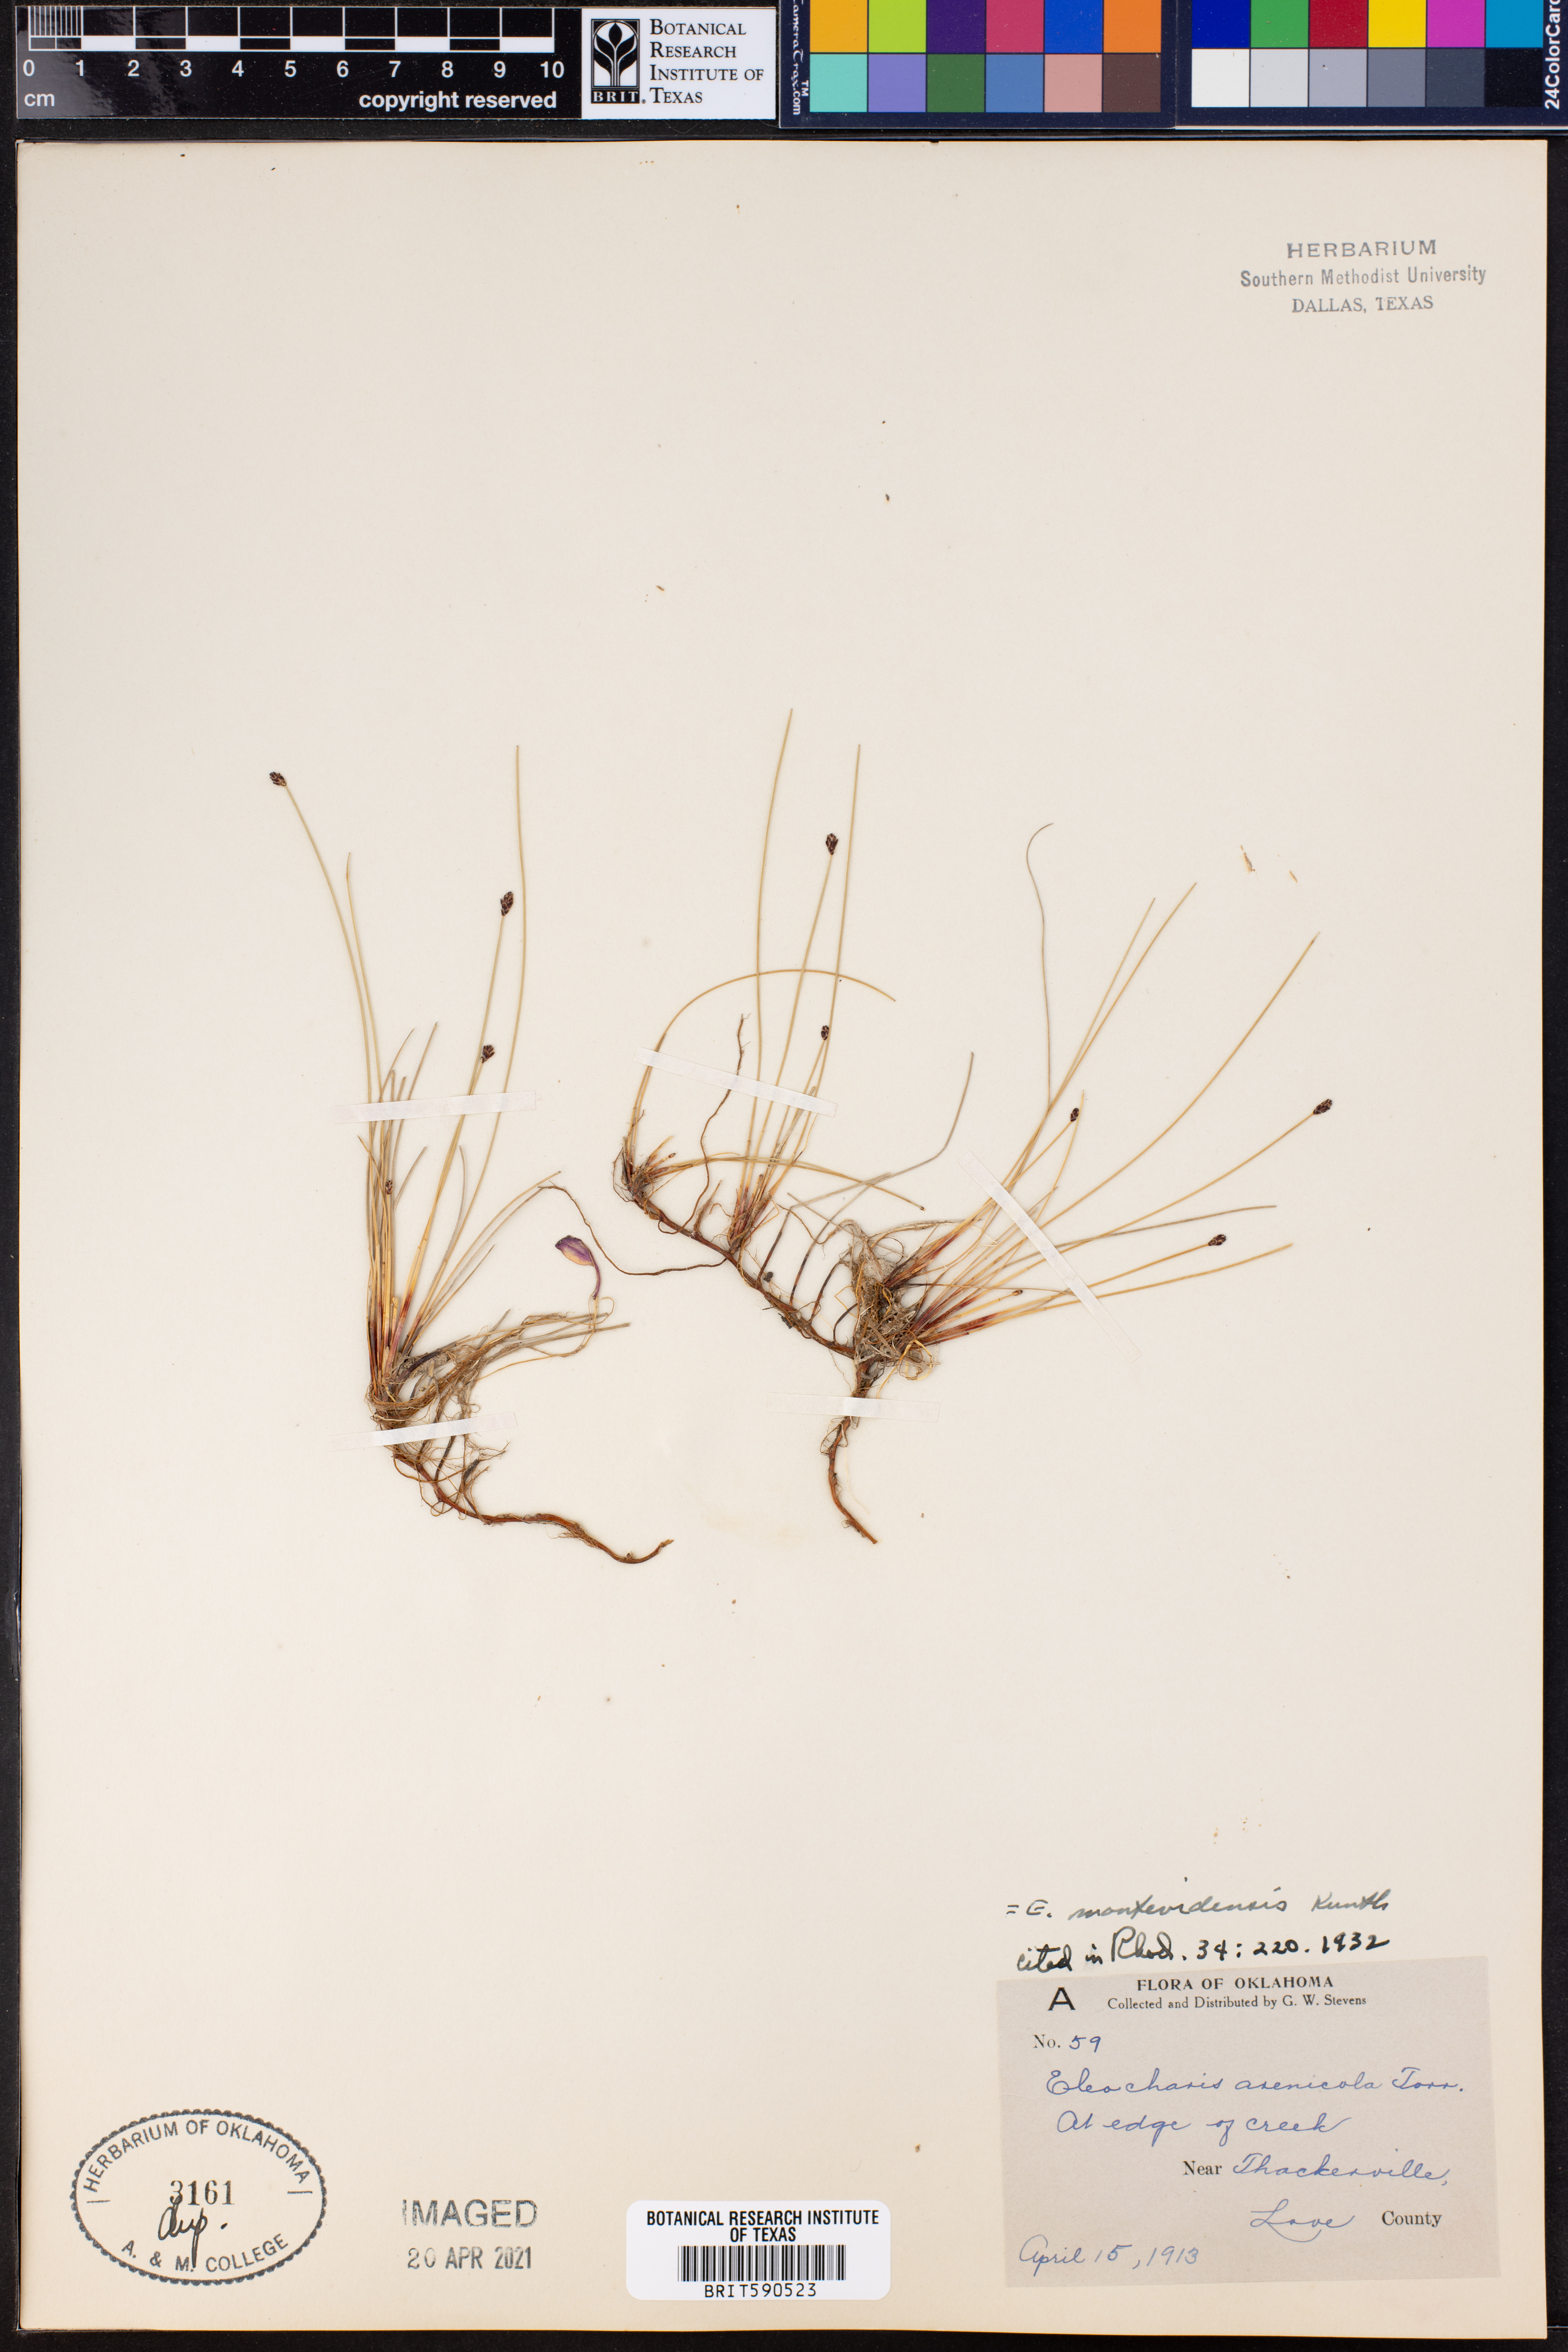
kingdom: Plantae
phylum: Tracheophyta
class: Liliopsida
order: Poales
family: Cyperaceae
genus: Eleocharis
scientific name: Eleocharis montevidensis
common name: Sand spike-rush
